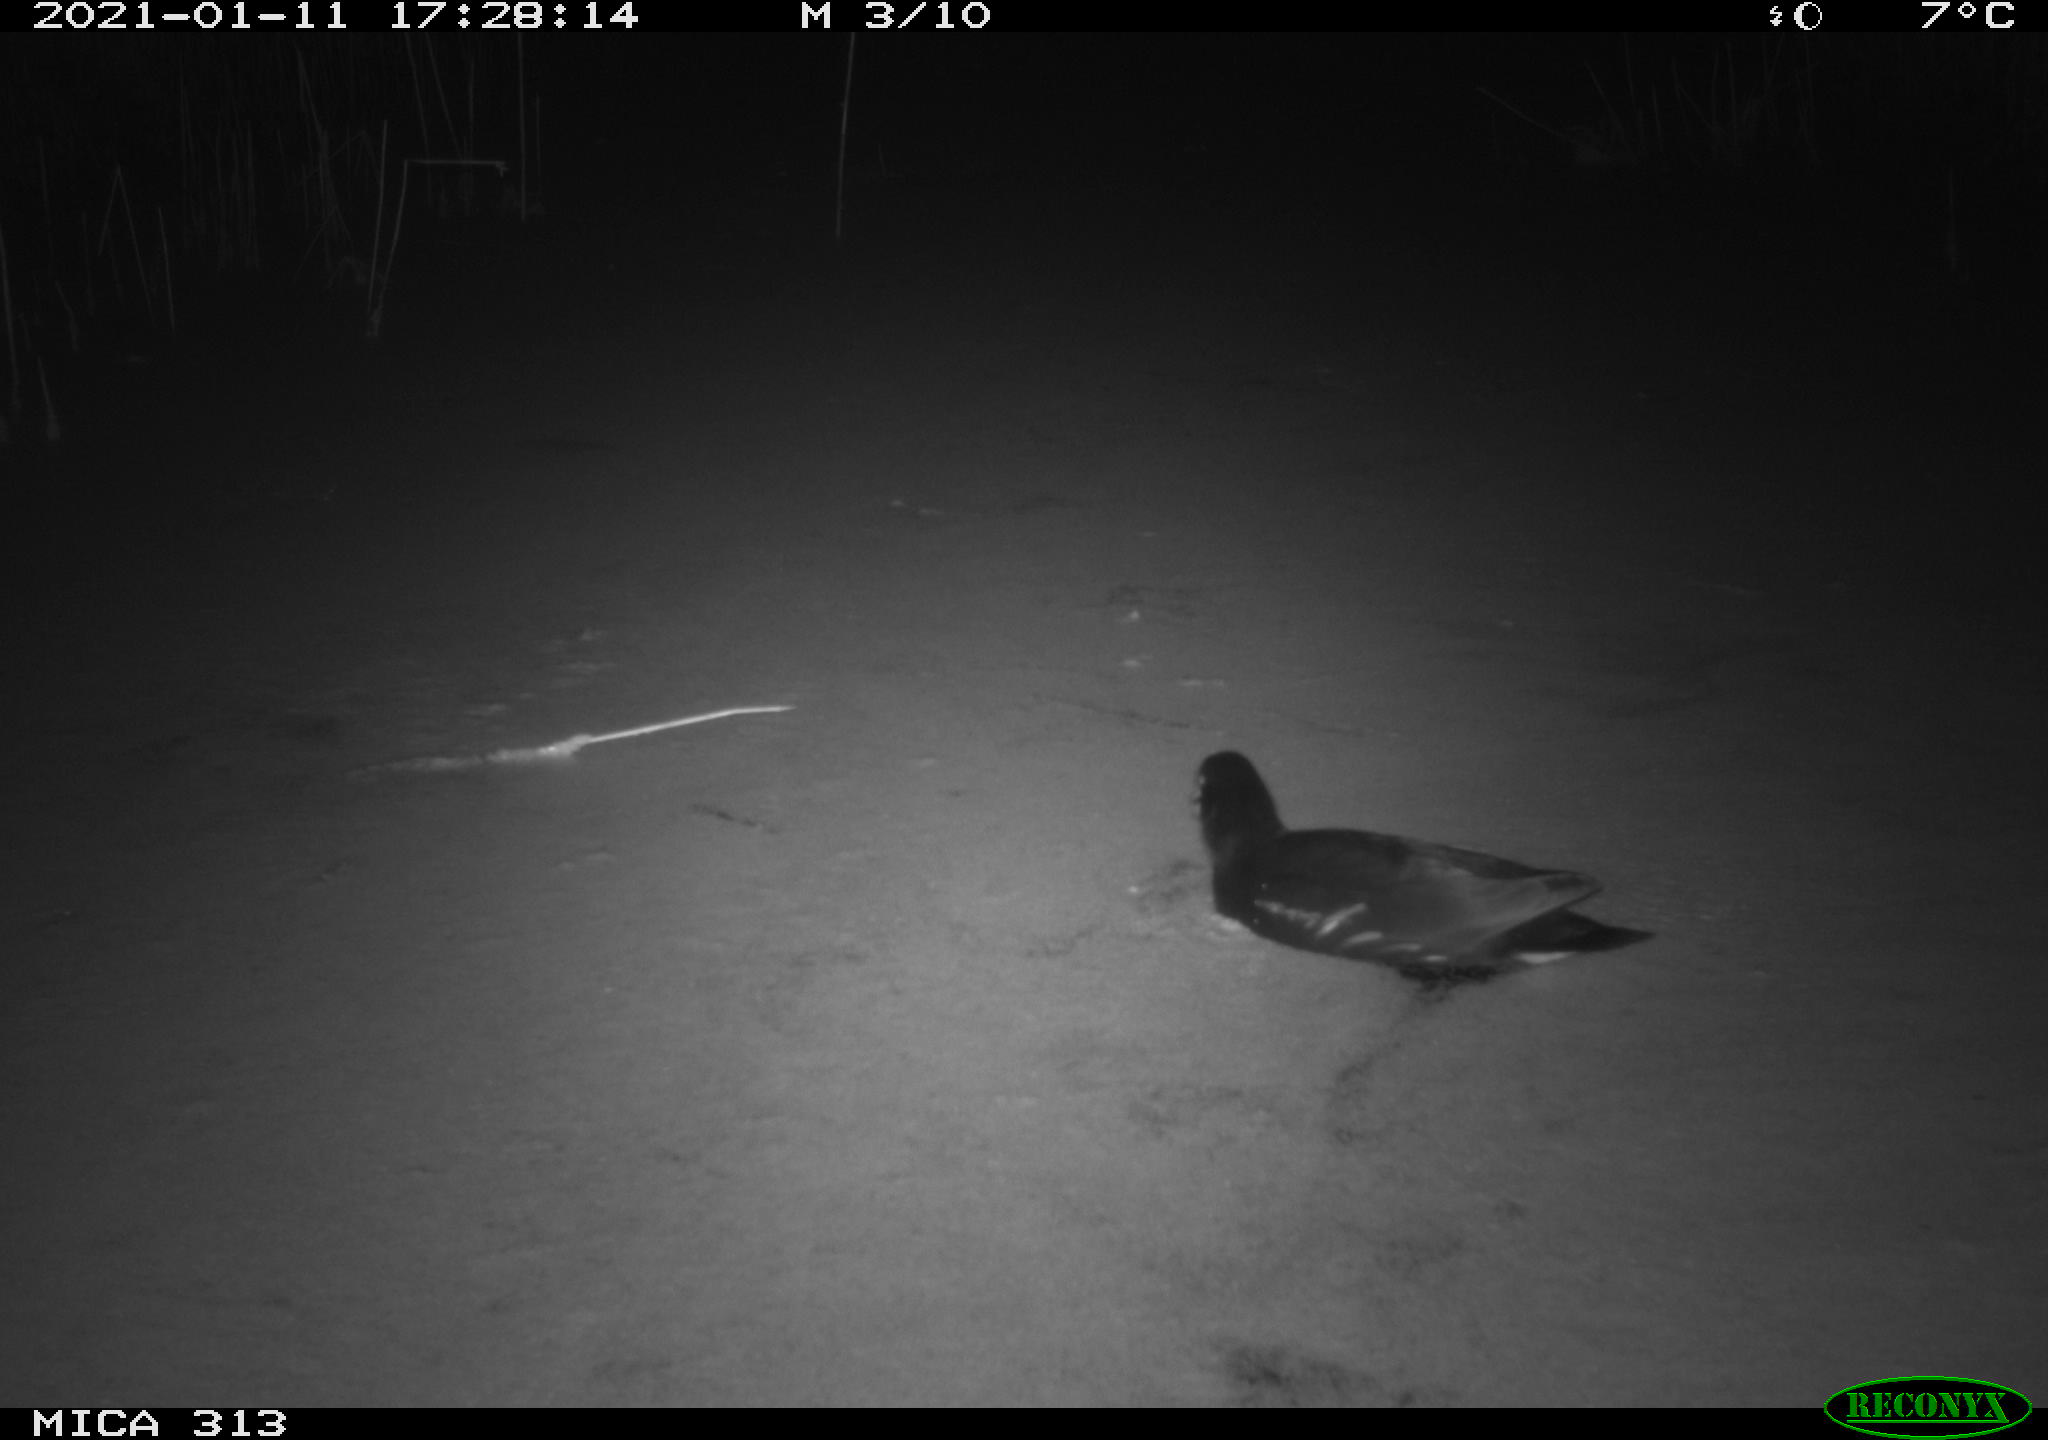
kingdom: Animalia
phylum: Chordata
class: Aves
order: Gruiformes
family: Rallidae
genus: Fulica
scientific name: Fulica atra
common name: Eurasian coot
